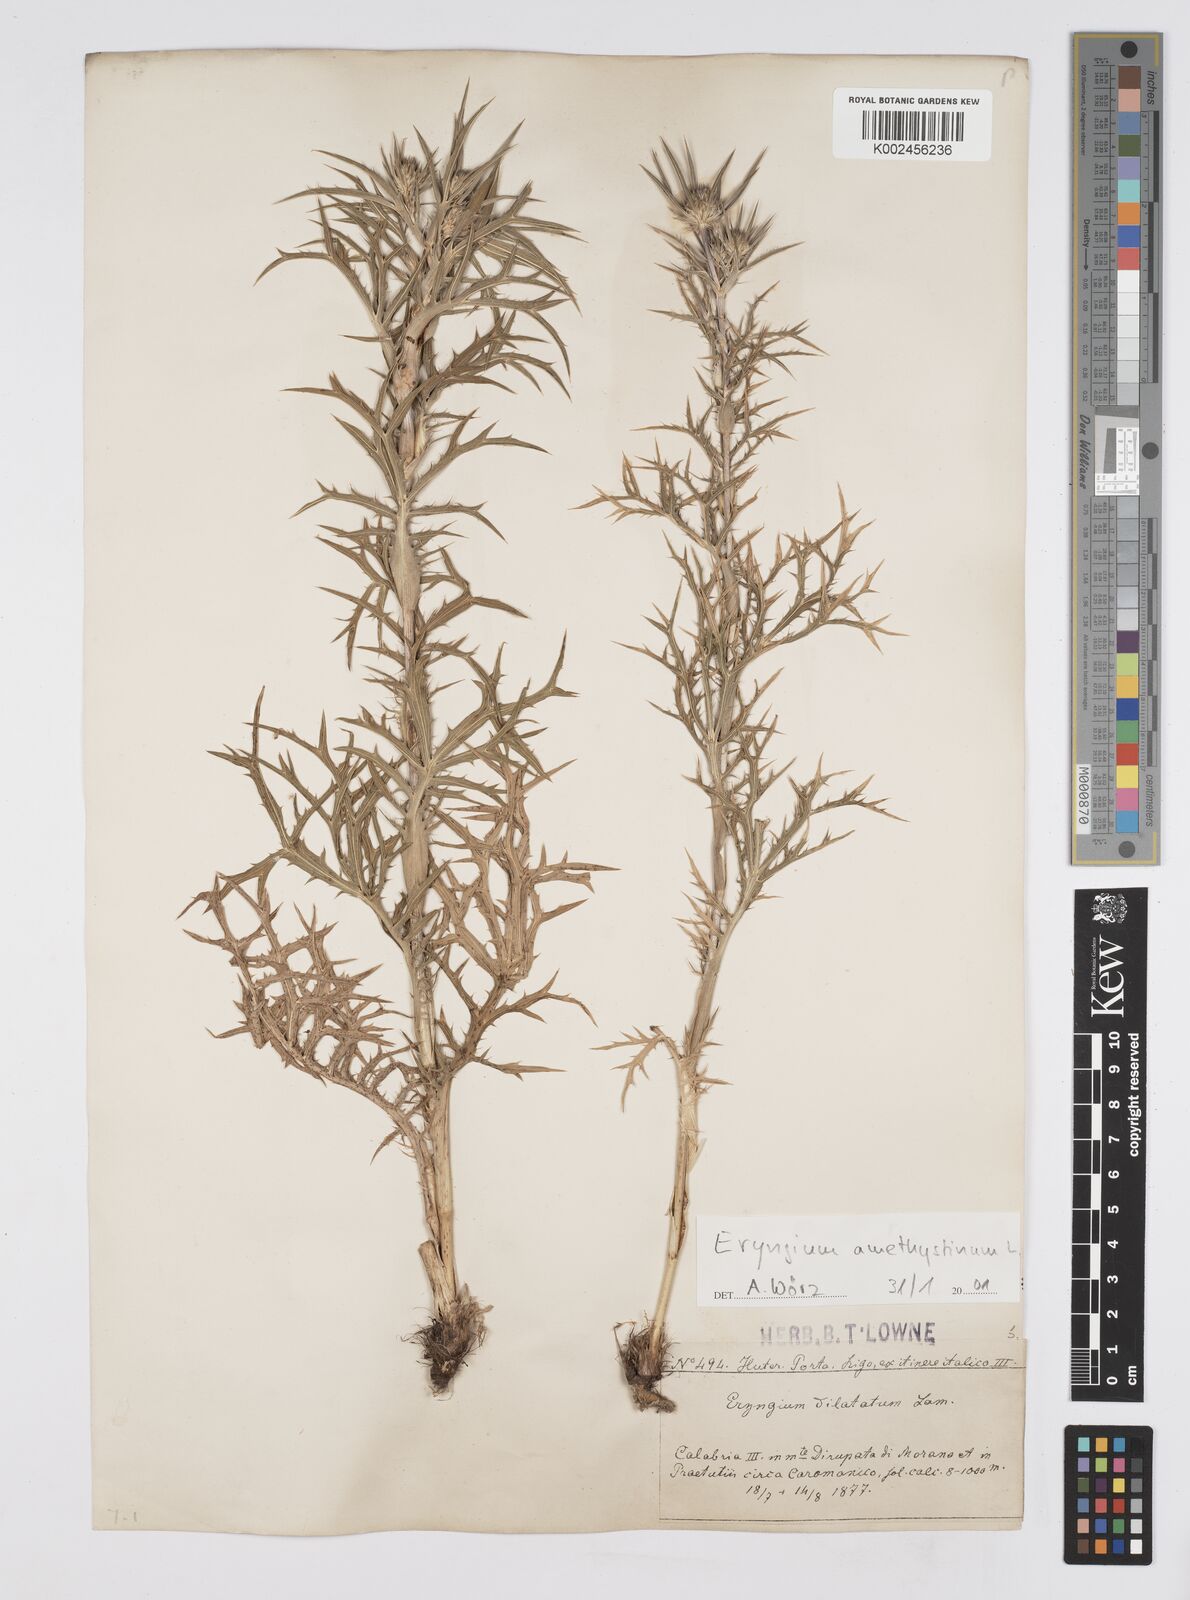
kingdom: Plantae
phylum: Tracheophyta
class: Magnoliopsida
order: Apiales
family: Apiaceae
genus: Eryngium
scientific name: Eryngium amethystinum
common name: Amethyst eryngo
